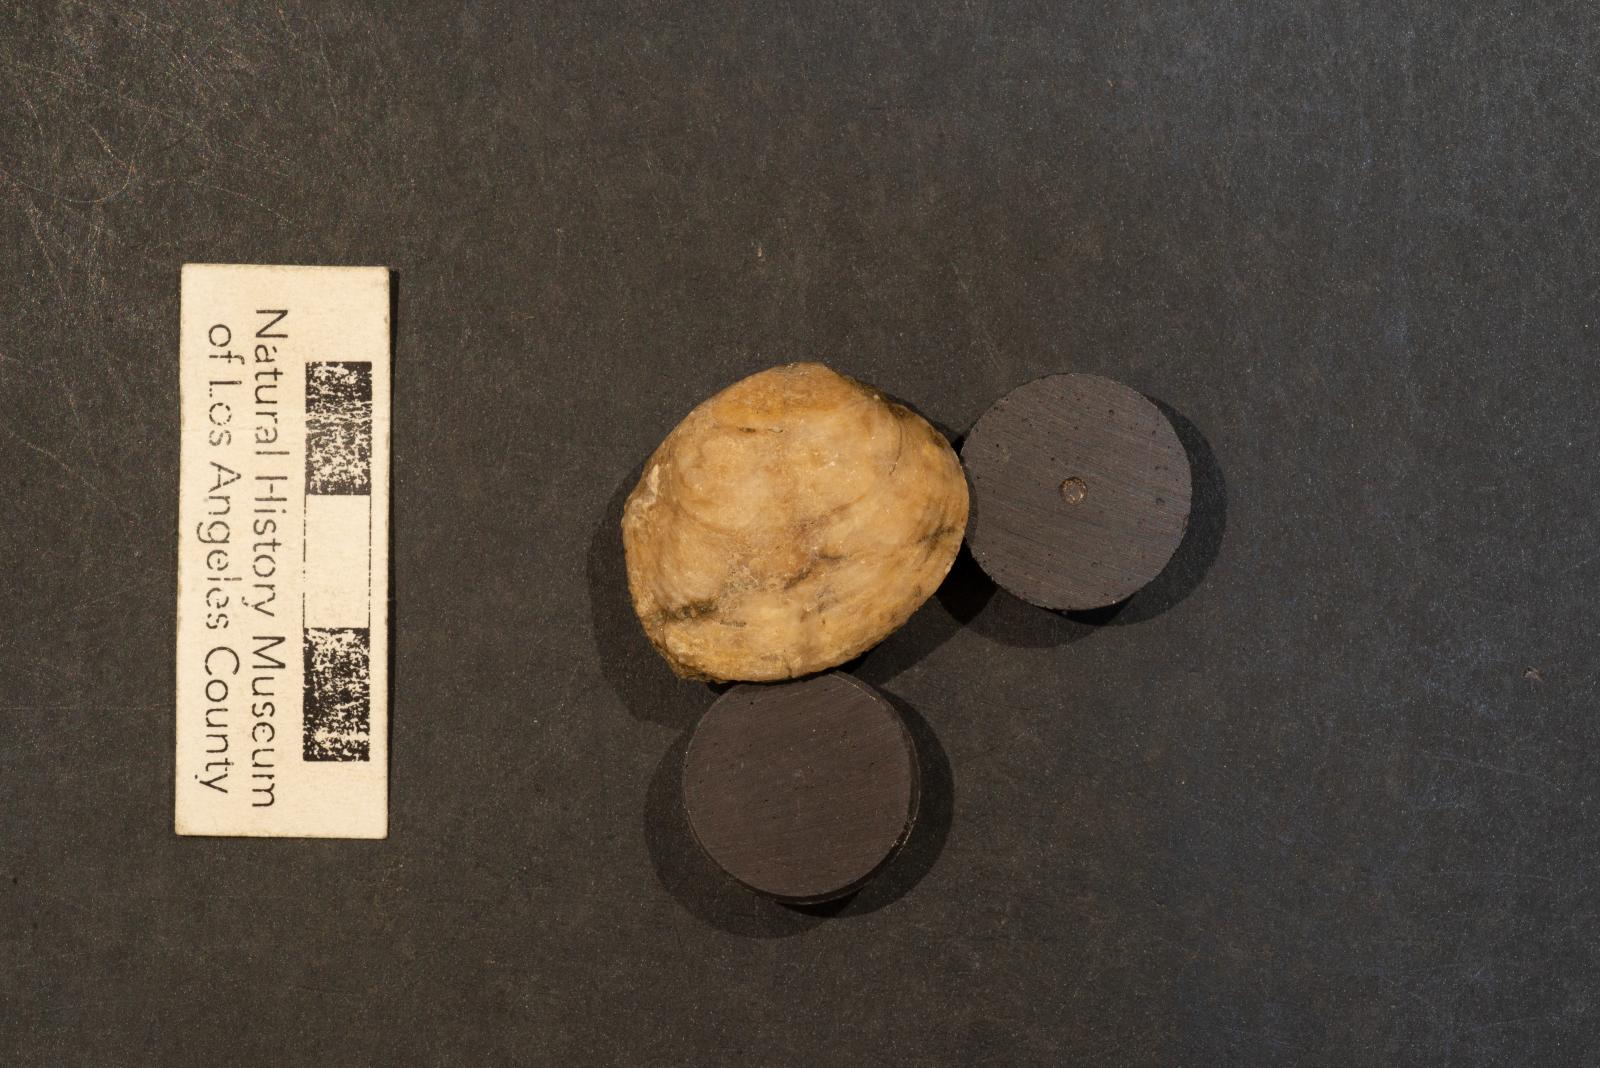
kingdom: Animalia
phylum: Mollusca
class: Bivalvia
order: Venerida
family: Veneridae
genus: Rhaiphiale
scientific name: Rhaiphiale pharota
